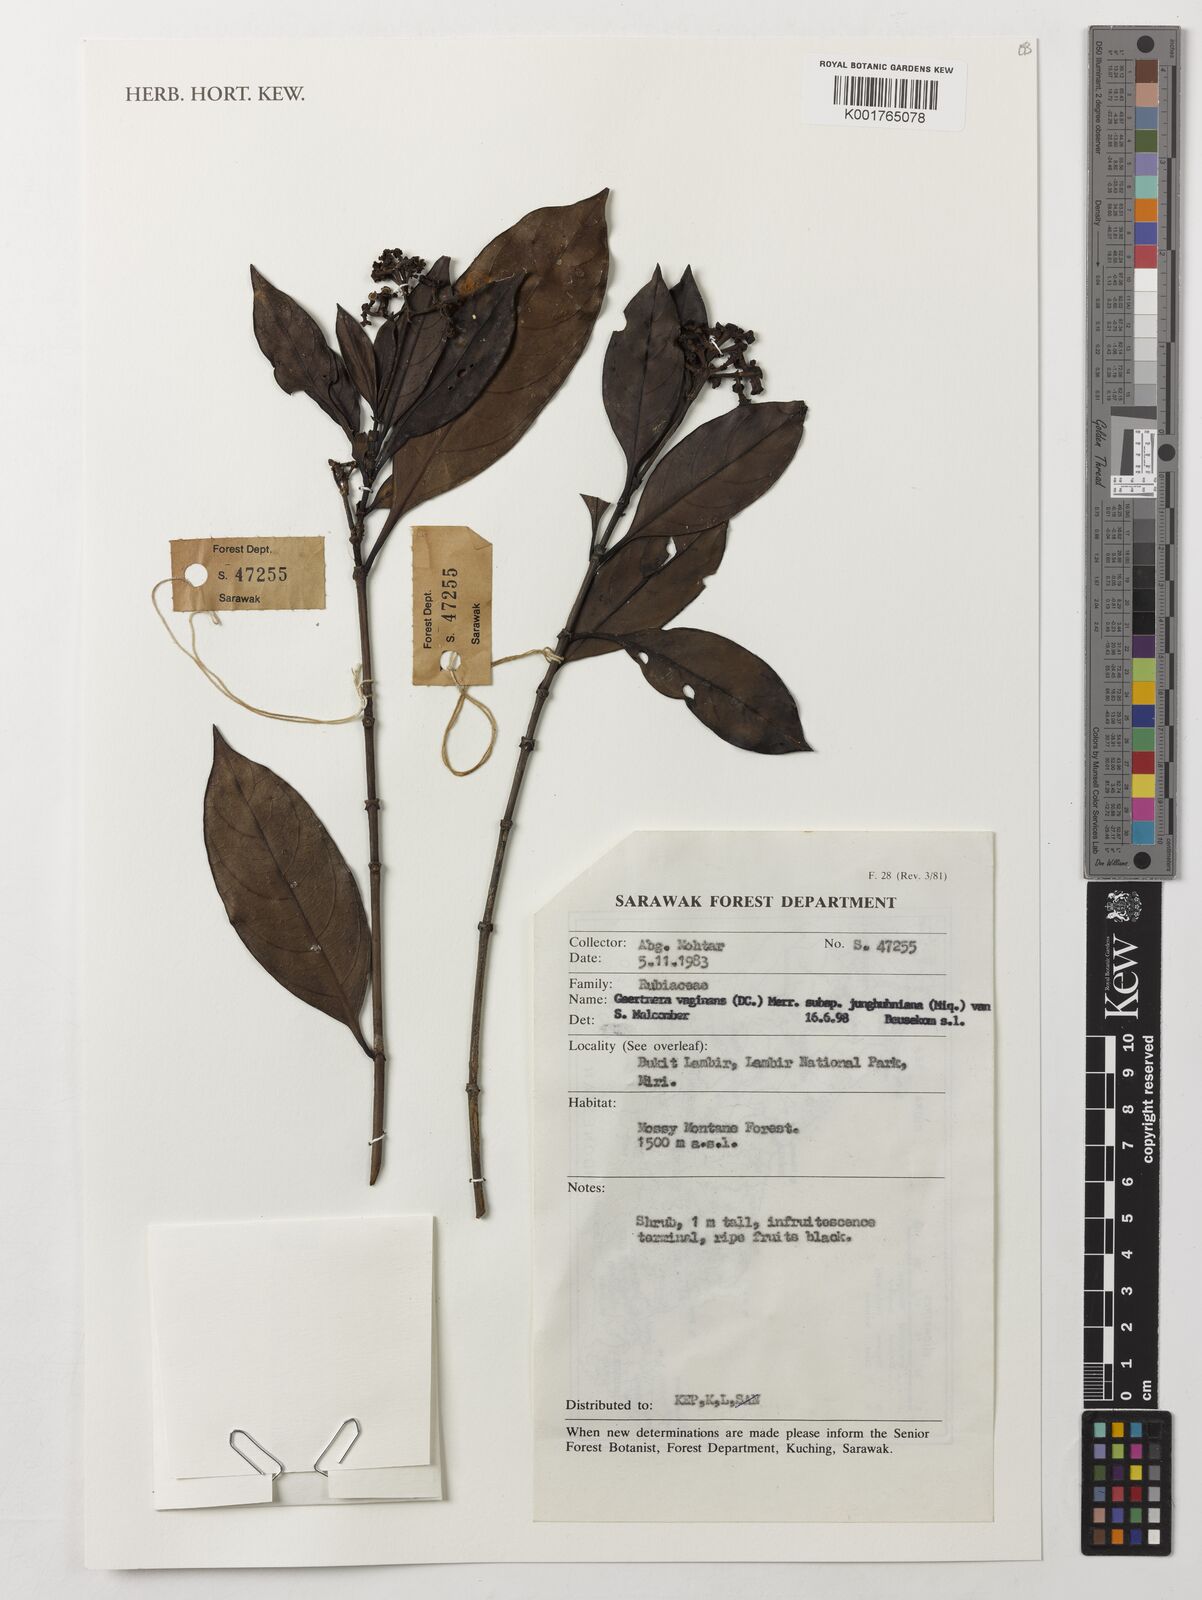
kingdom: Plantae
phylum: Tracheophyta
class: Magnoliopsida
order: Gentianales
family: Rubiaceae
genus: Gaertnera
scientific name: Gaertnera vaginans
